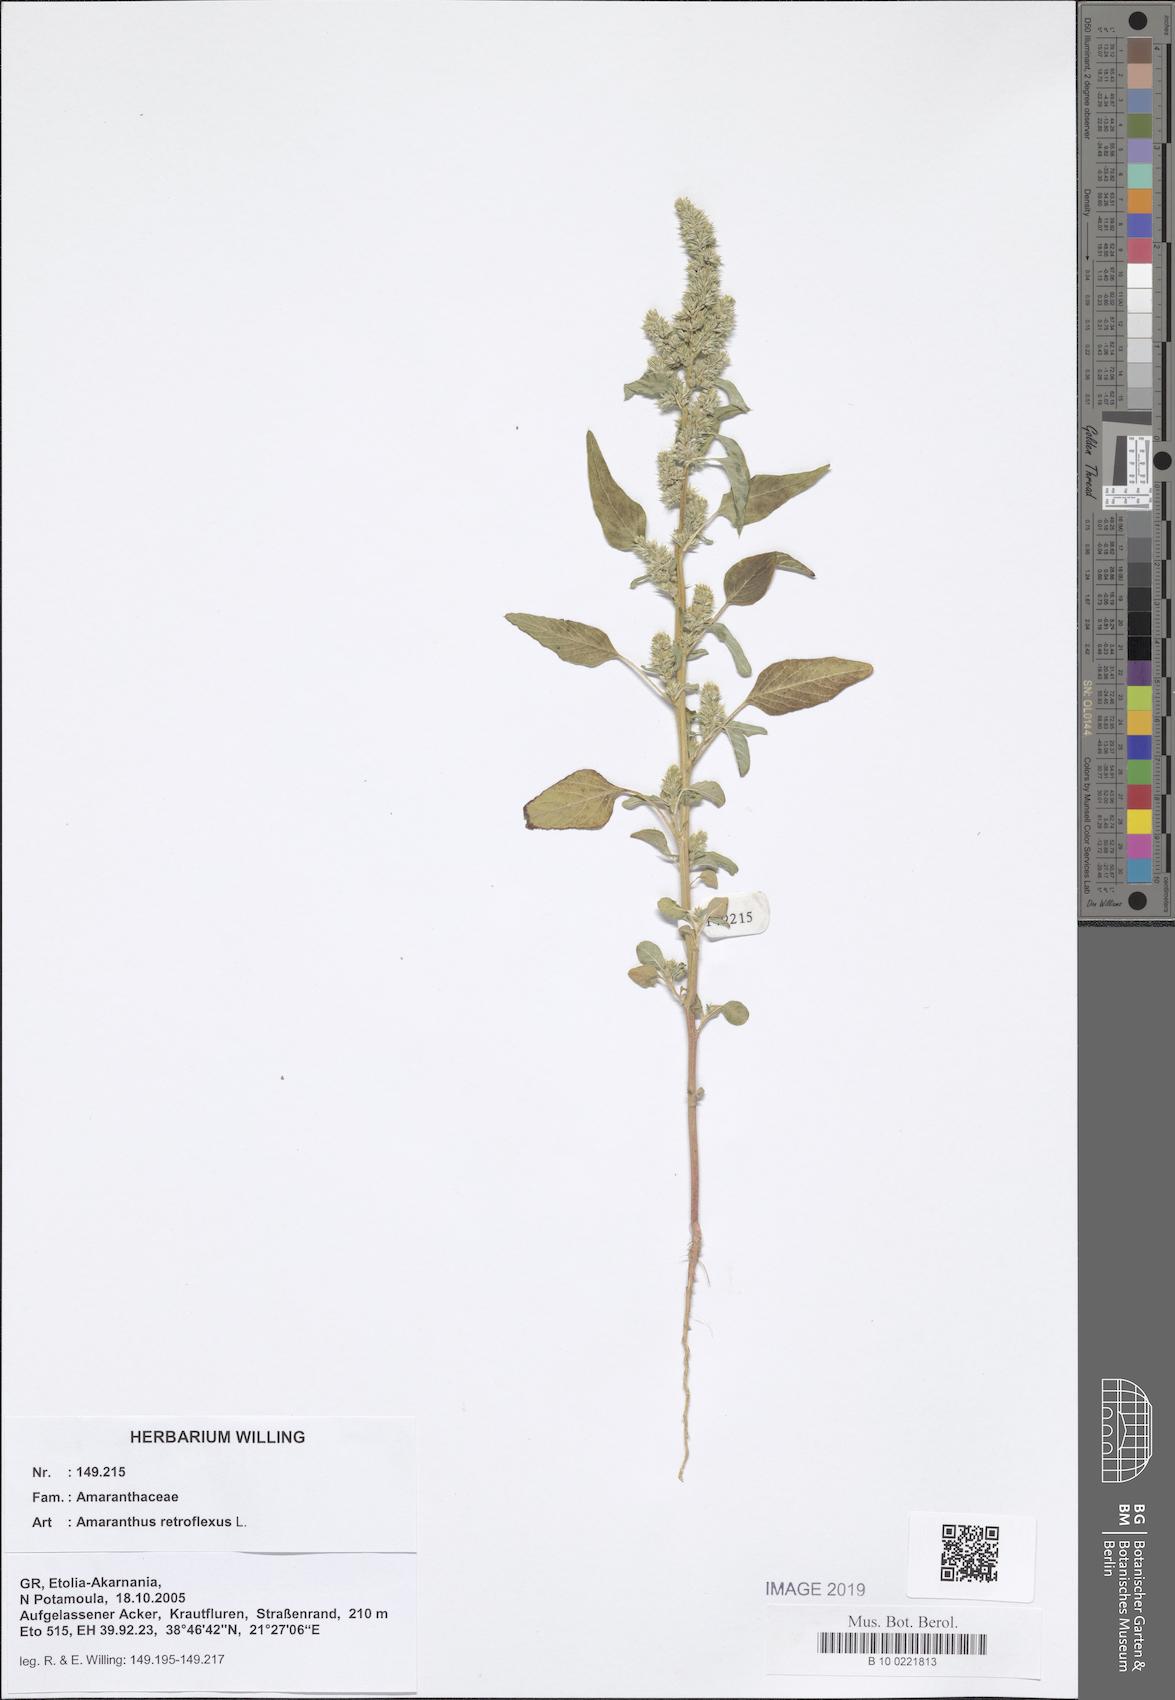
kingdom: Plantae
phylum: Tracheophyta
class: Magnoliopsida
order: Caryophyllales
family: Amaranthaceae
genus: Amaranthus
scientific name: Amaranthus retroflexus
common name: Redroot amaranth
